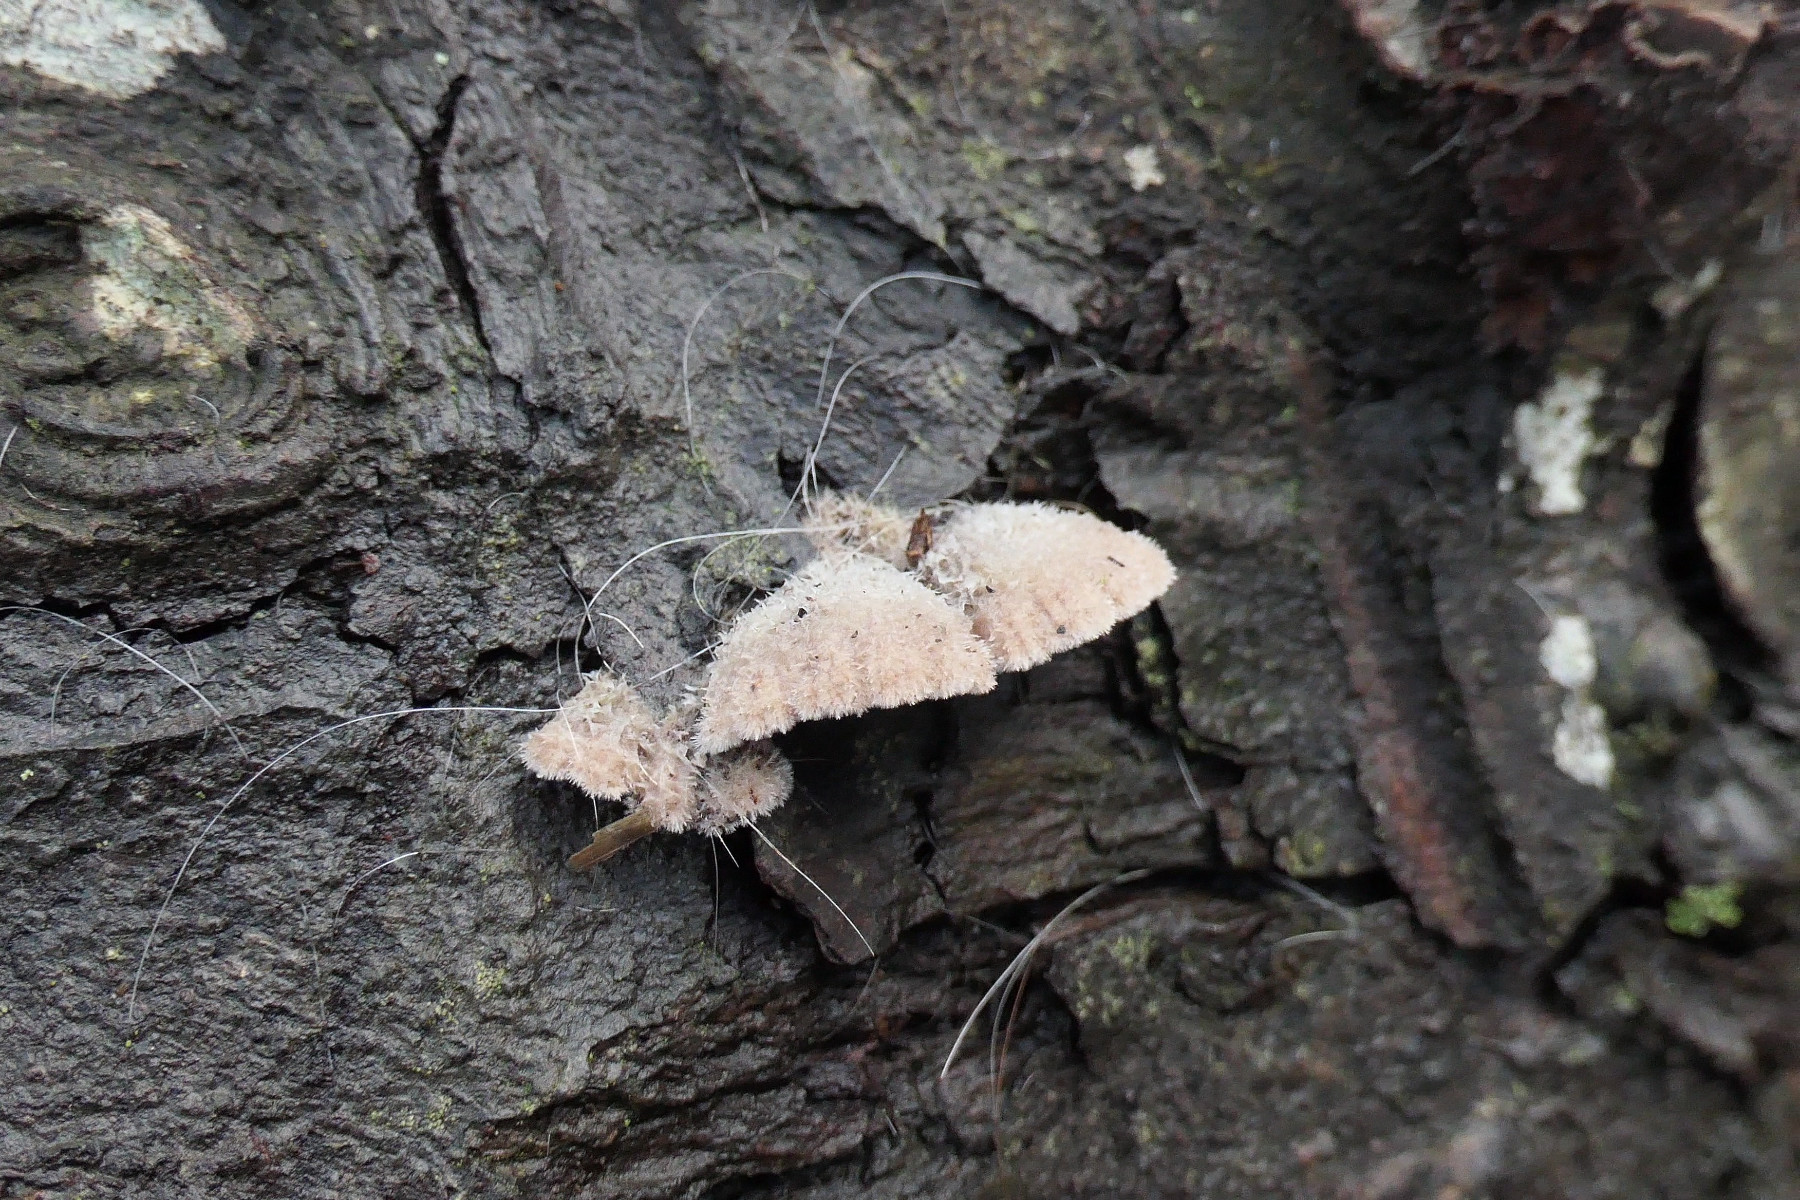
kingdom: Fungi
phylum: Basidiomycota
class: Agaricomycetes
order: Agaricales
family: Schizophyllaceae
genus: Schizophyllum
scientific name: Schizophyllum commune
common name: kløvblad
